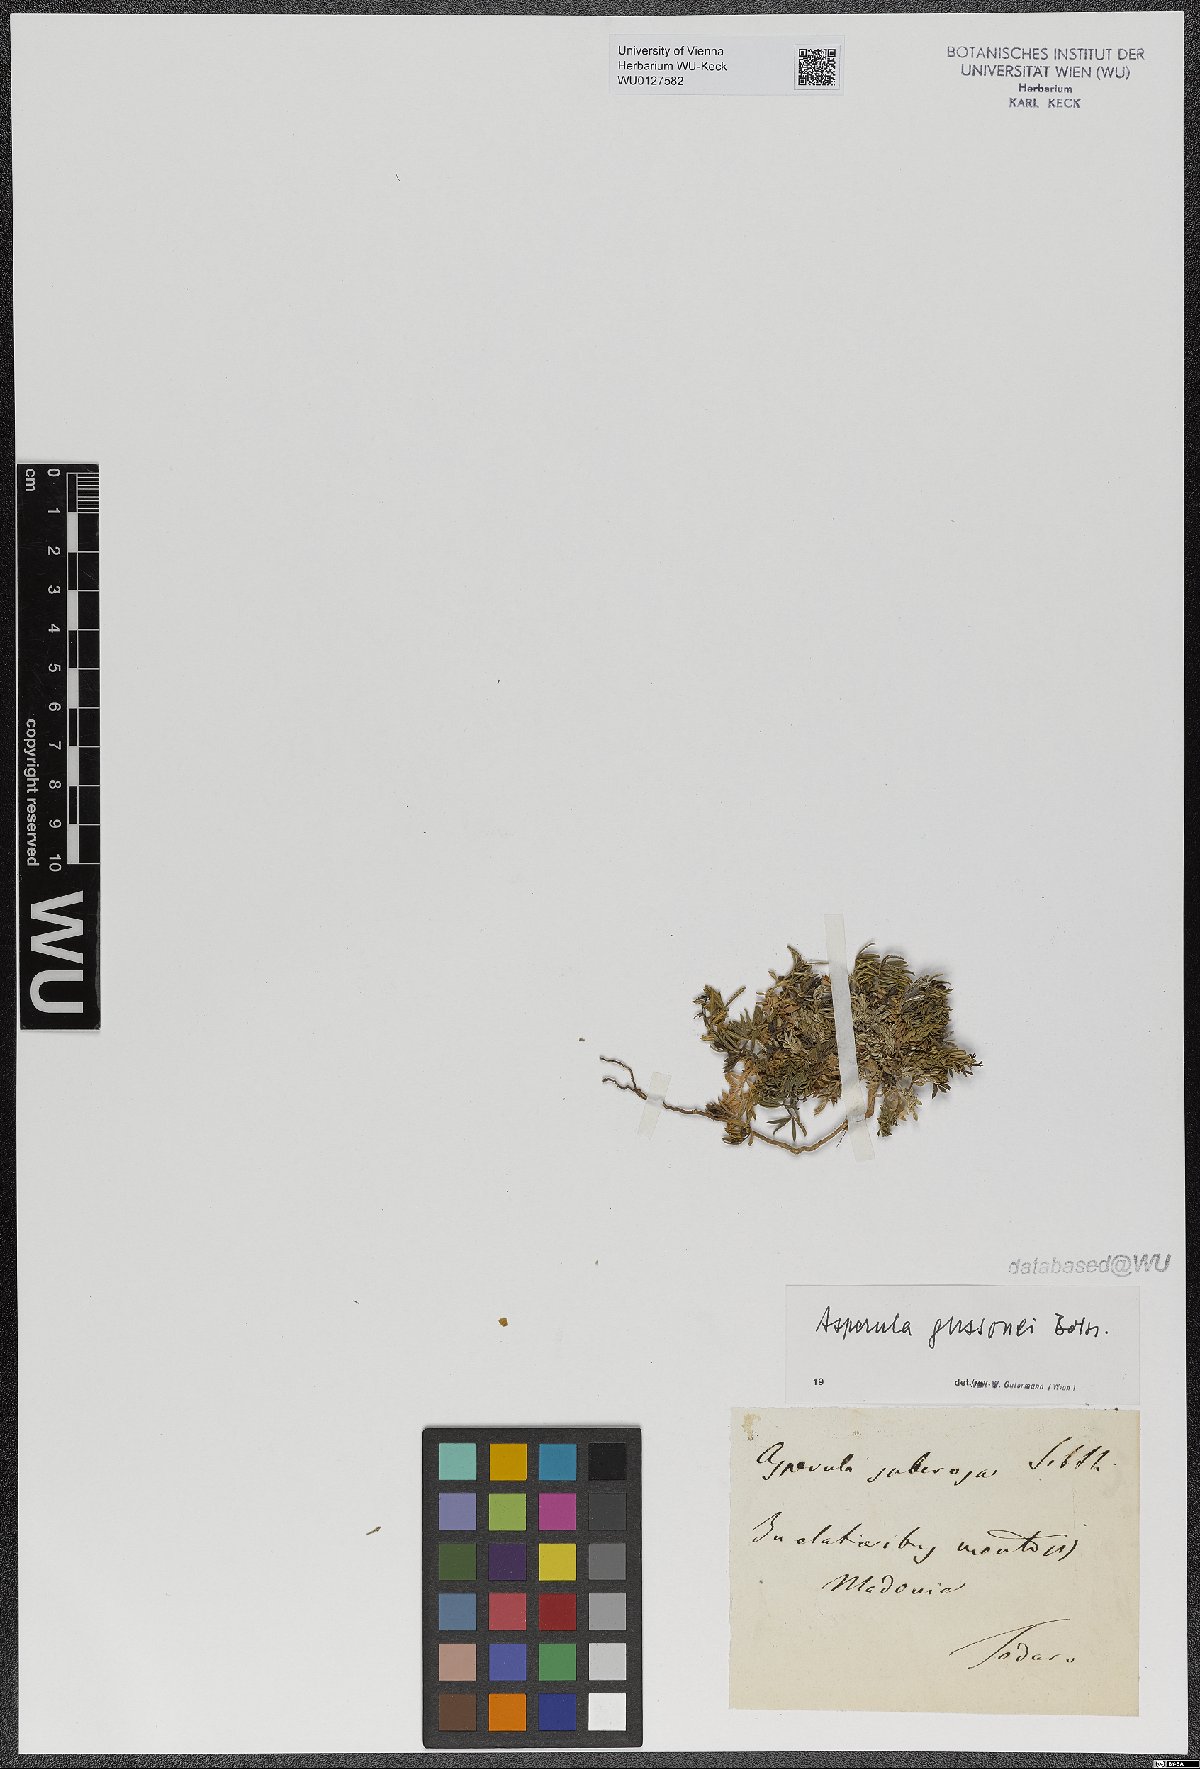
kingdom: Plantae
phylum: Tracheophyta
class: Magnoliopsida
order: Gentianales
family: Rubiaceae
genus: Cynanchica
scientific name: Cynanchica gussonei
